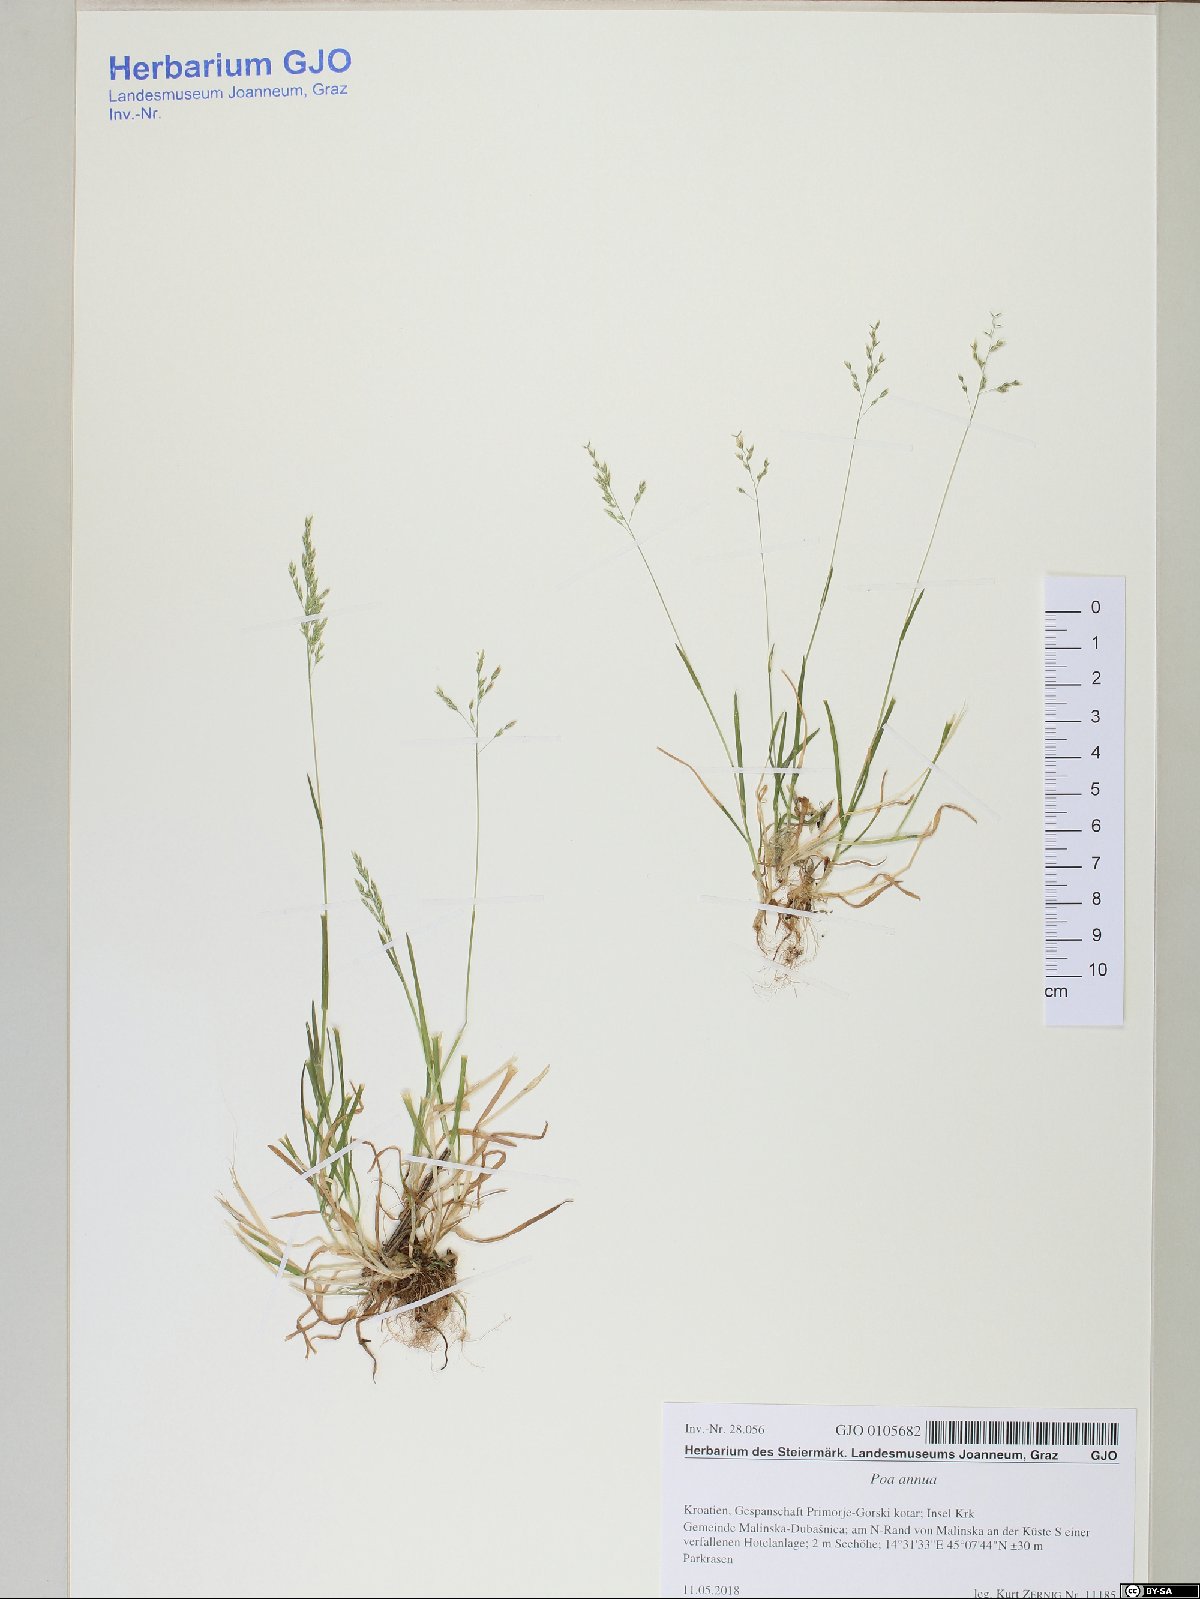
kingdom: Plantae
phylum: Tracheophyta
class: Liliopsida
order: Poales
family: Poaceae
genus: Poa
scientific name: Poa annua
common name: Annual bluegrass
